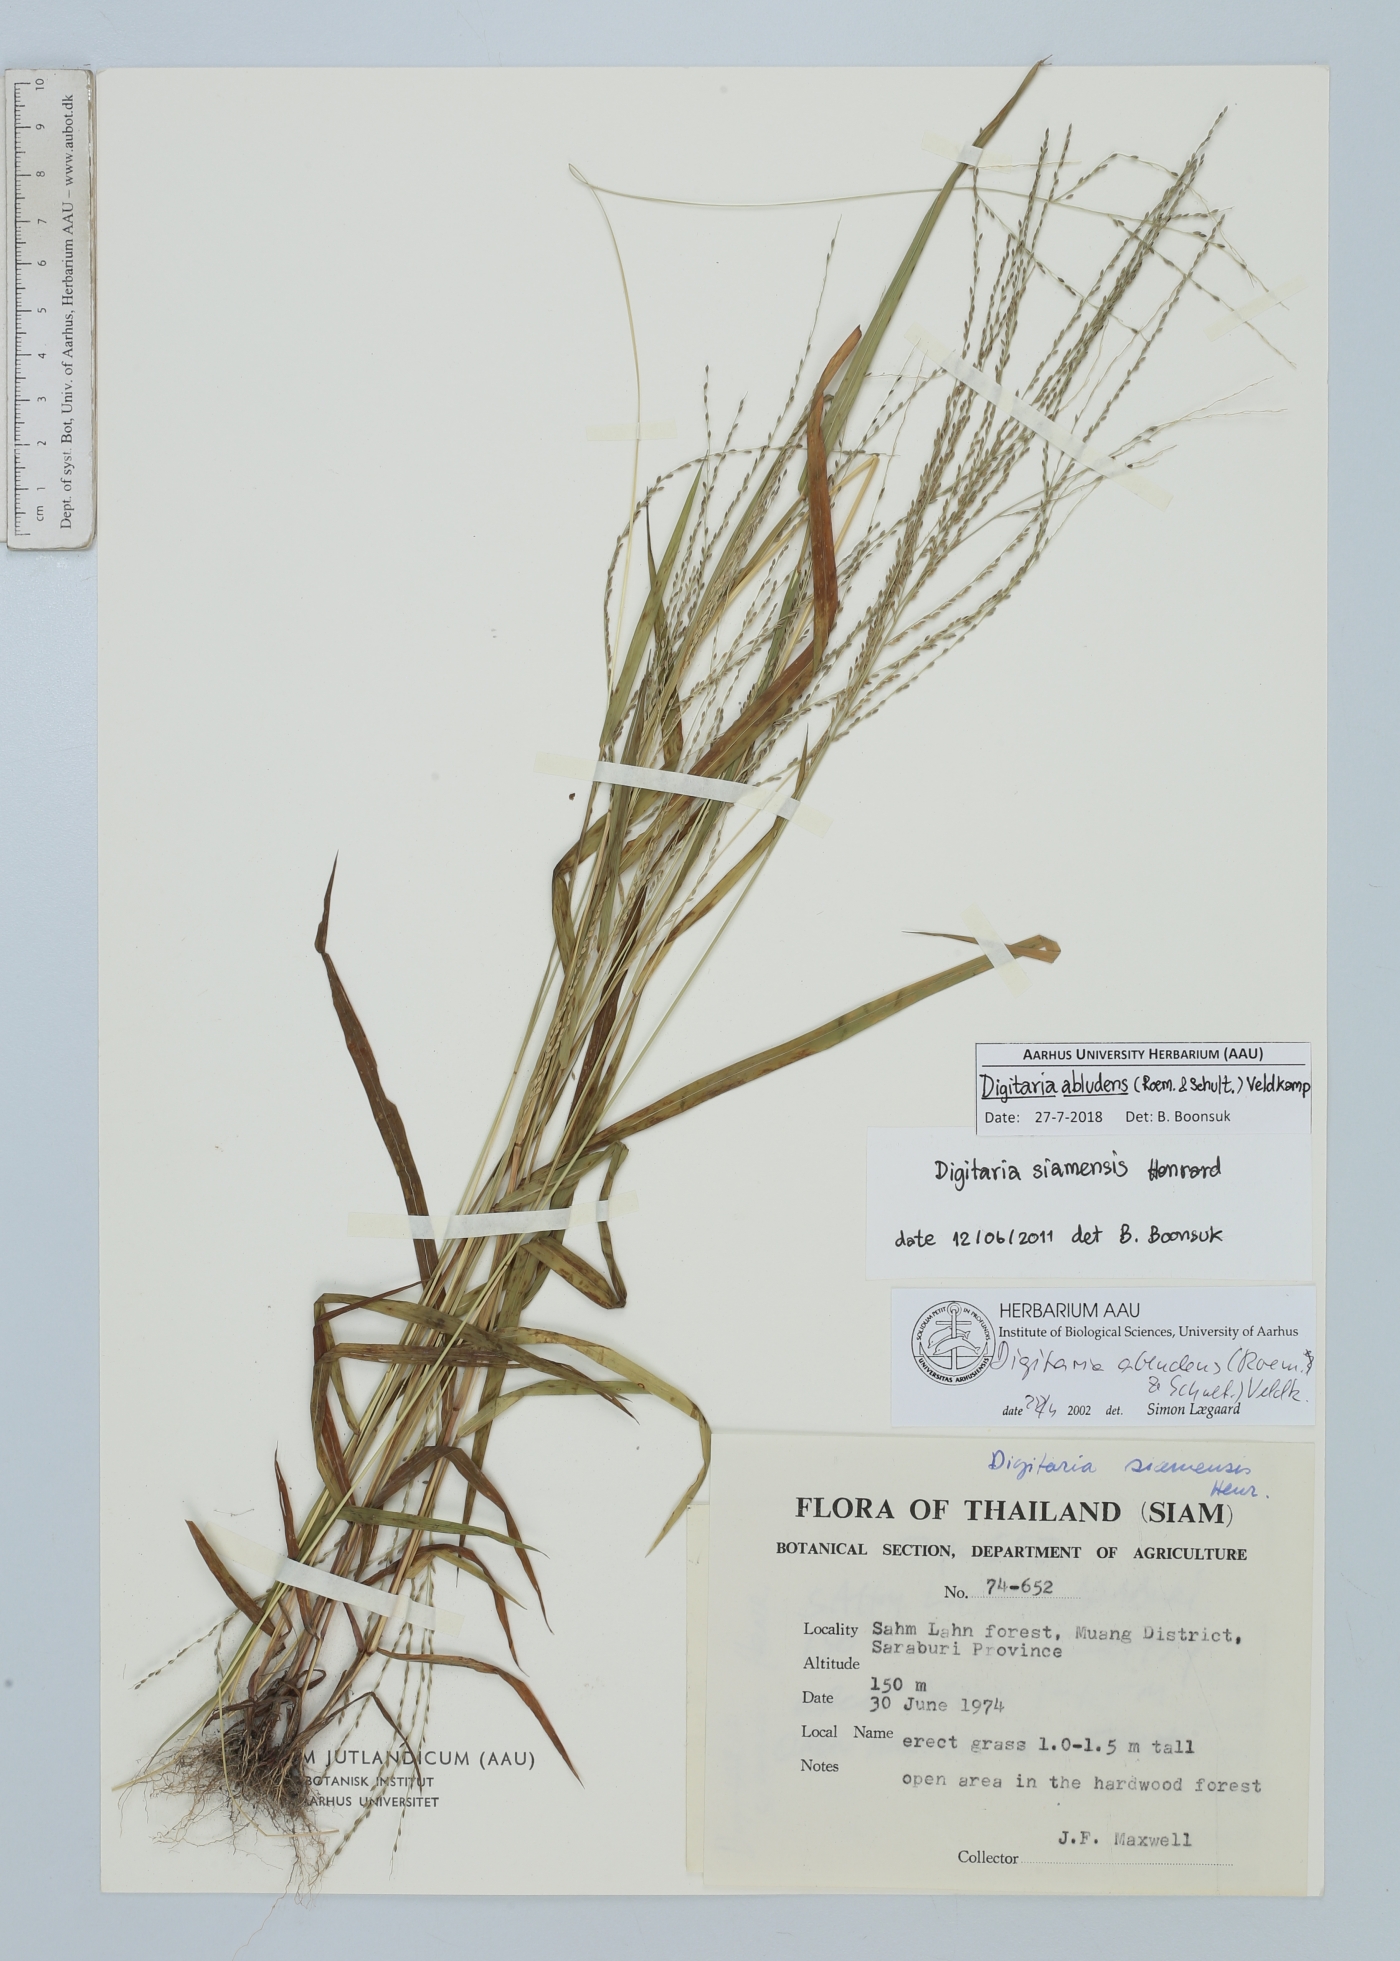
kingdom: Plantae
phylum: Tracheophyta
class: Liliopsida
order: Poales
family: Poaceae
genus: Digitaria
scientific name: Digitaria abludens
